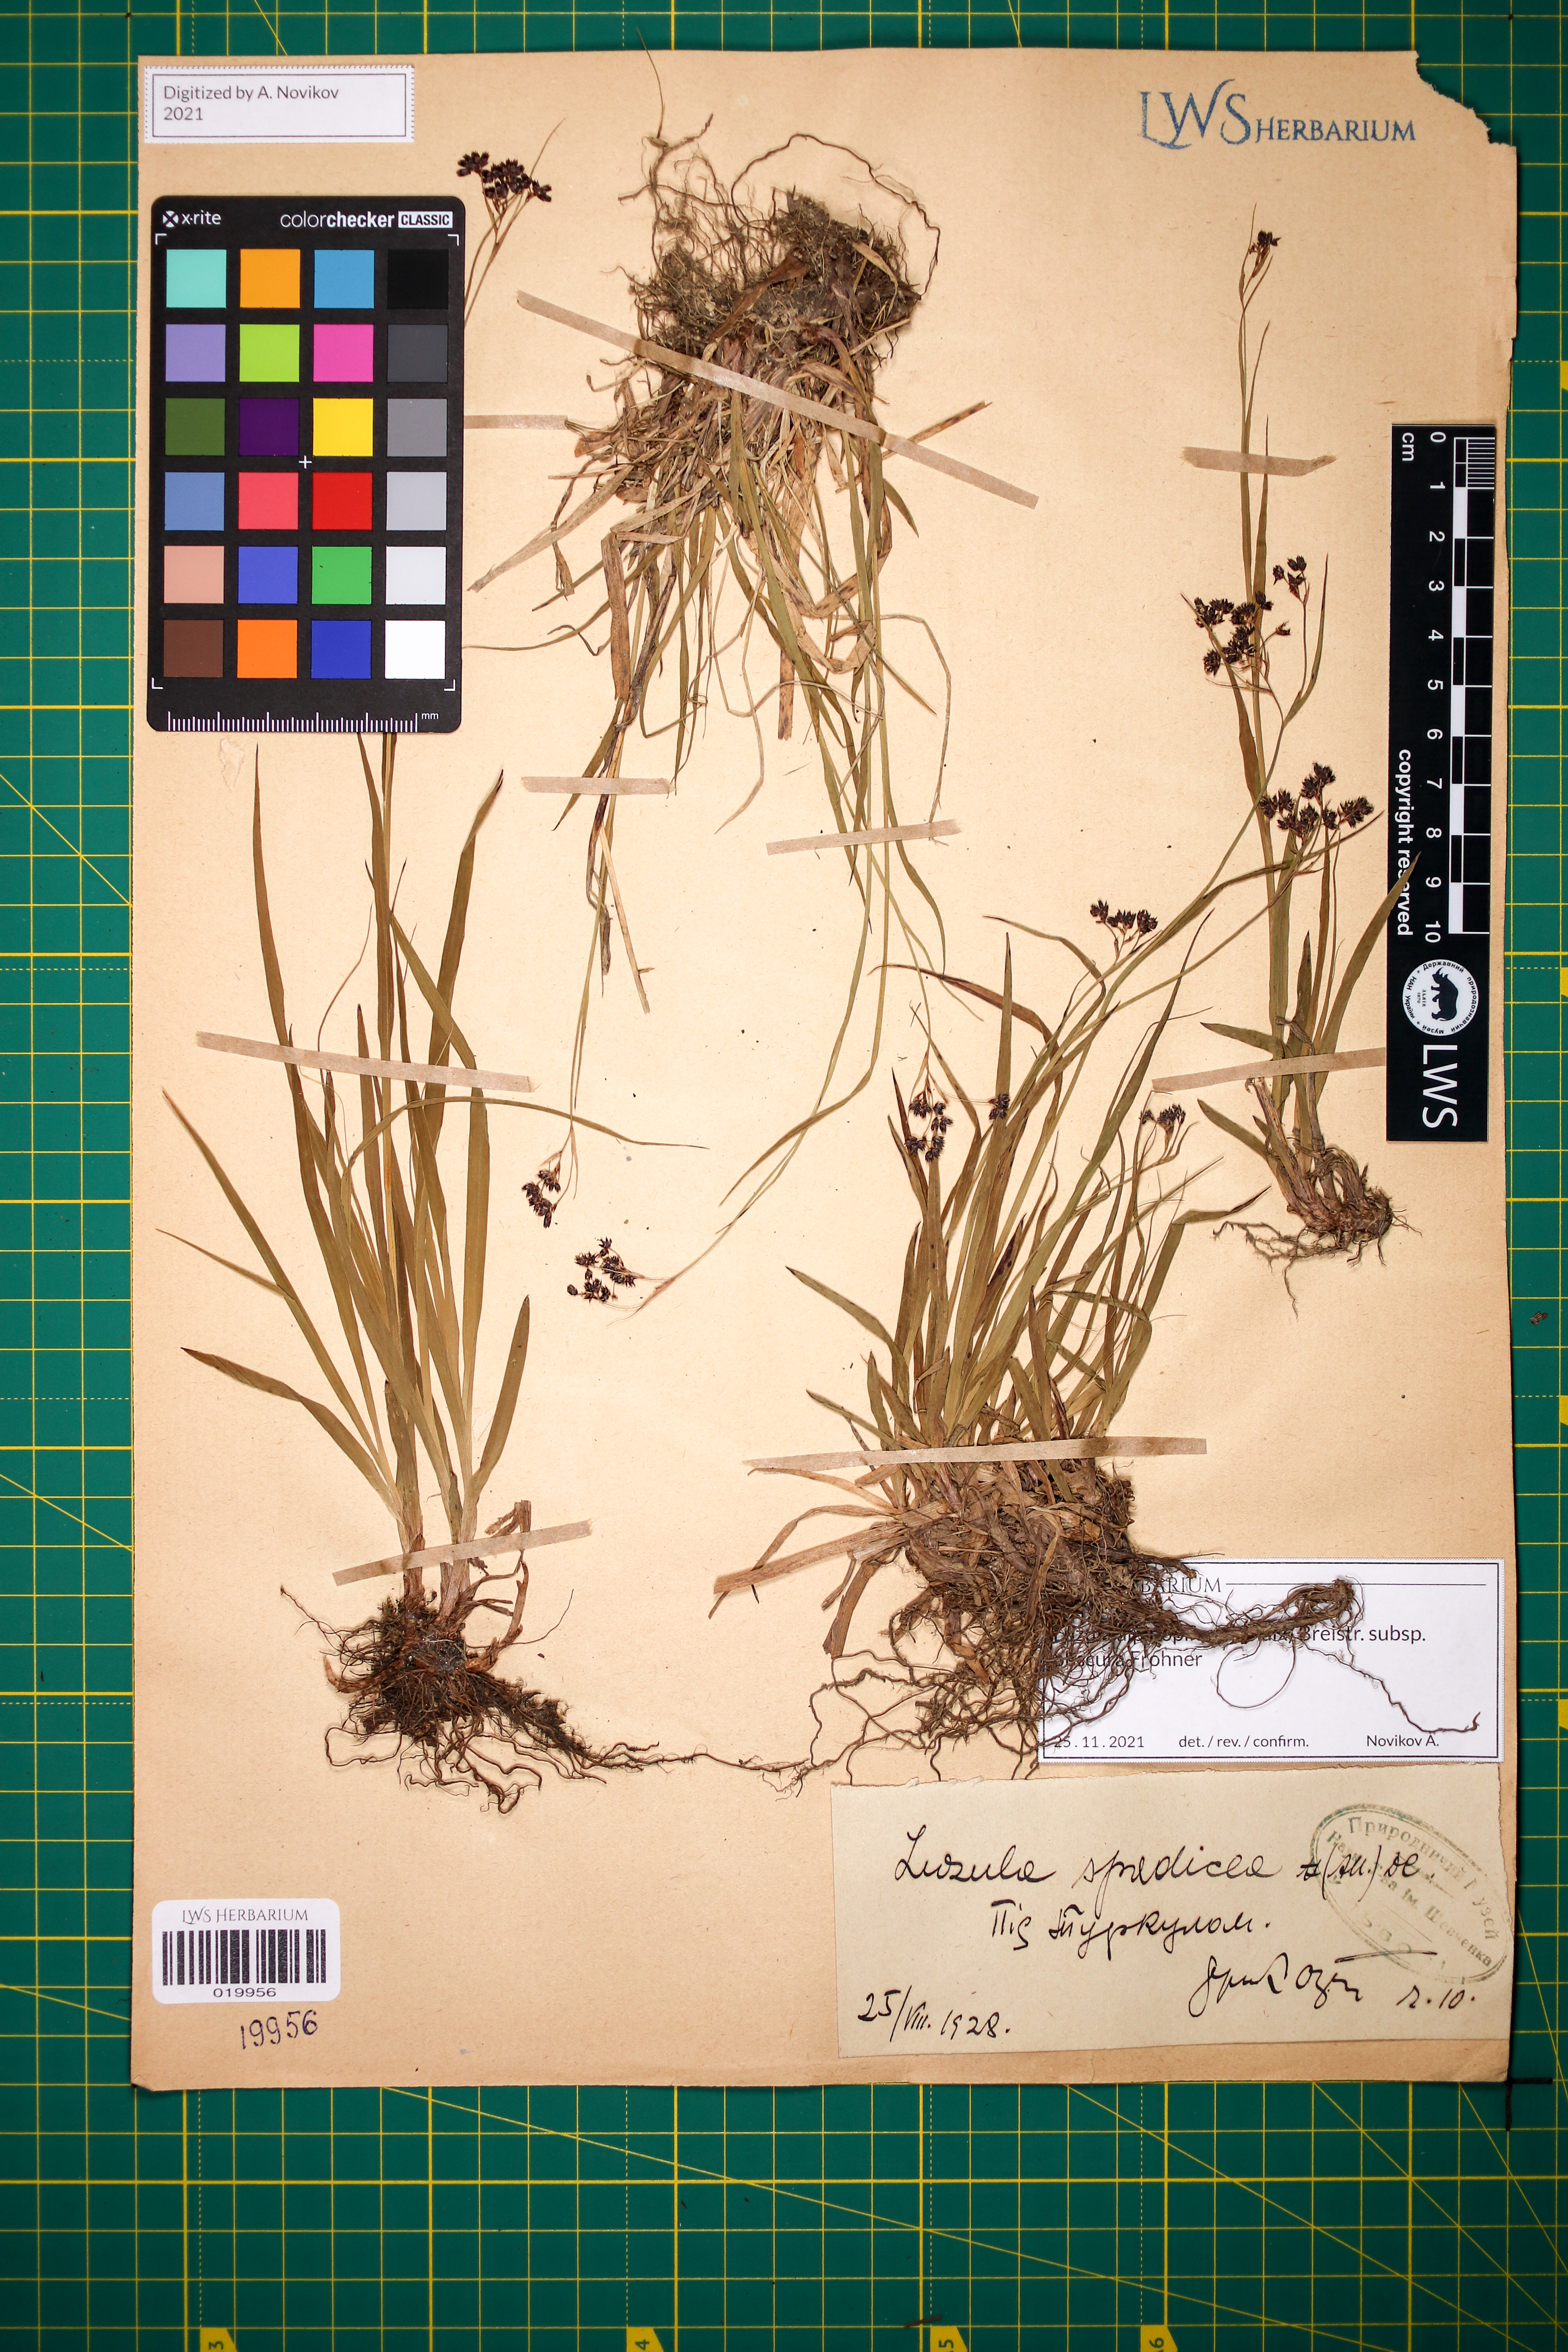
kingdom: Plantae
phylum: Tracheophyta
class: Liliopsida
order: Poales
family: Juncaceae
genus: Luzula
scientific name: Luzula alpinopilosa
